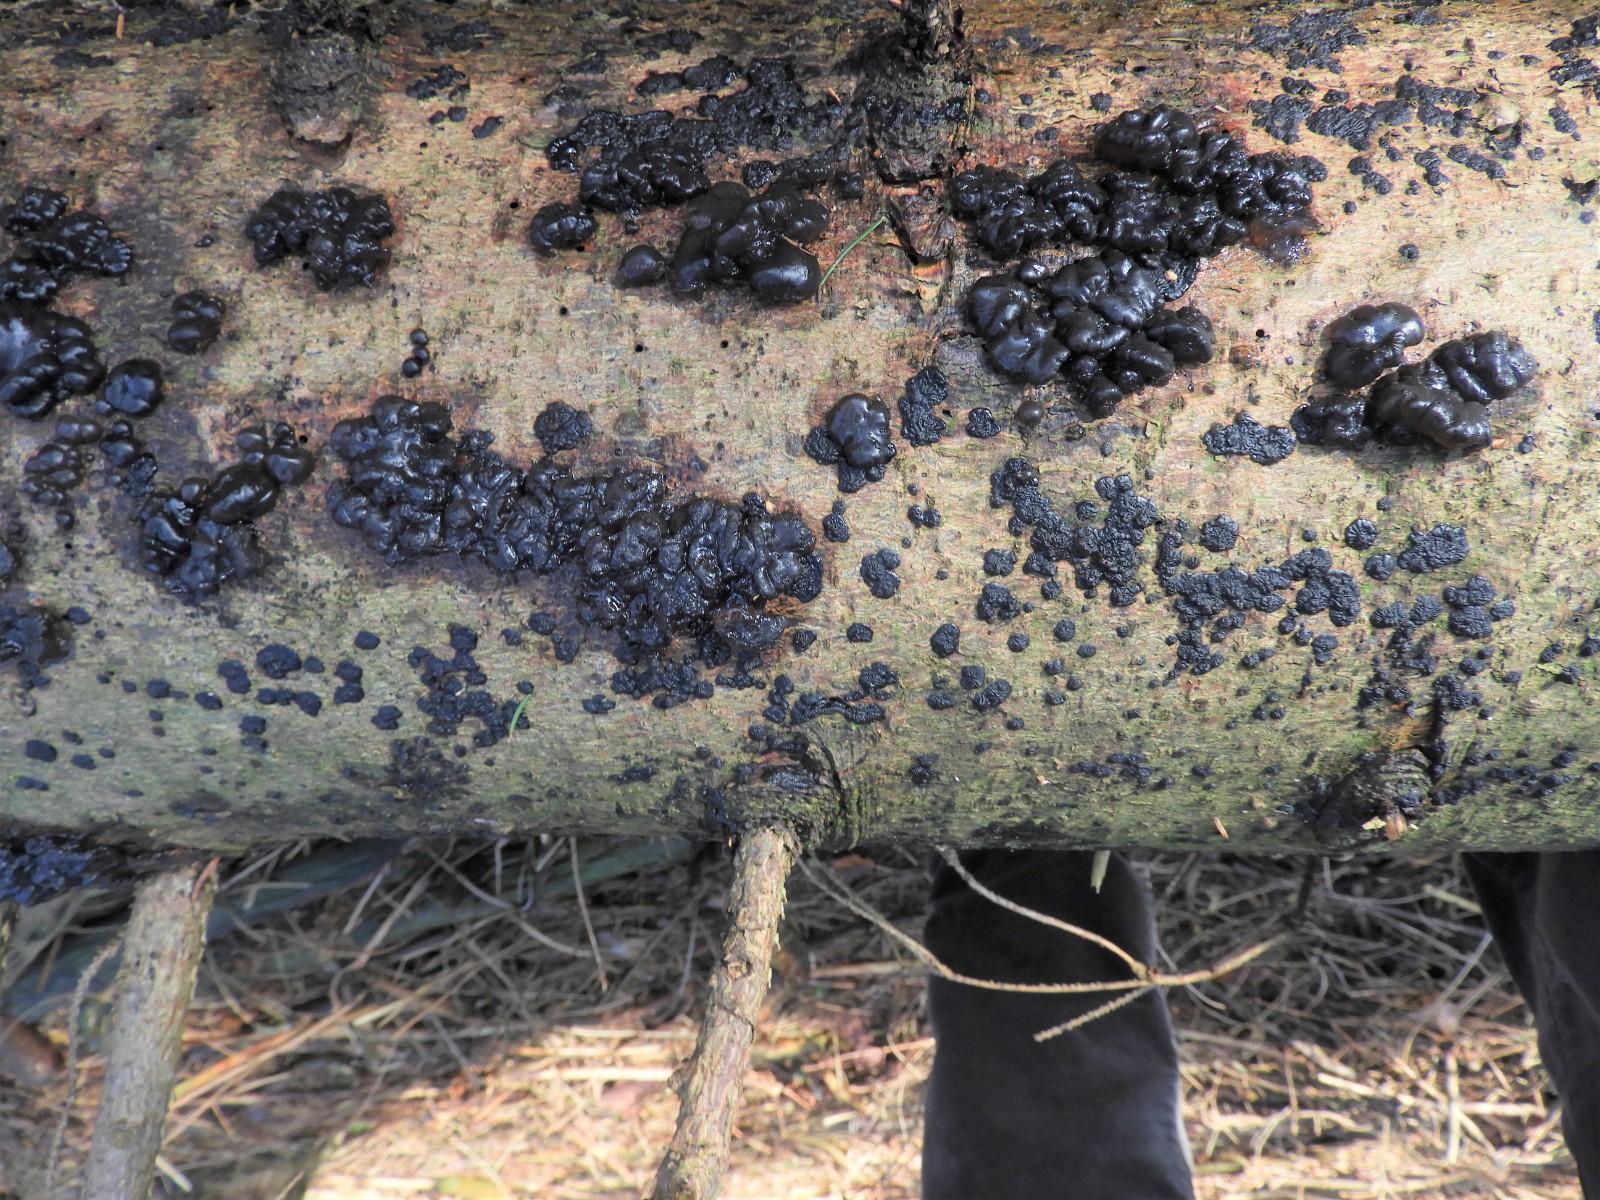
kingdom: Fungi
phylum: Basidiomycota
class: Agaricomycetes
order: Auriculariales
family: Auriculariaceae
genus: Exidia
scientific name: Exidia pithya
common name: gran-bævretop
